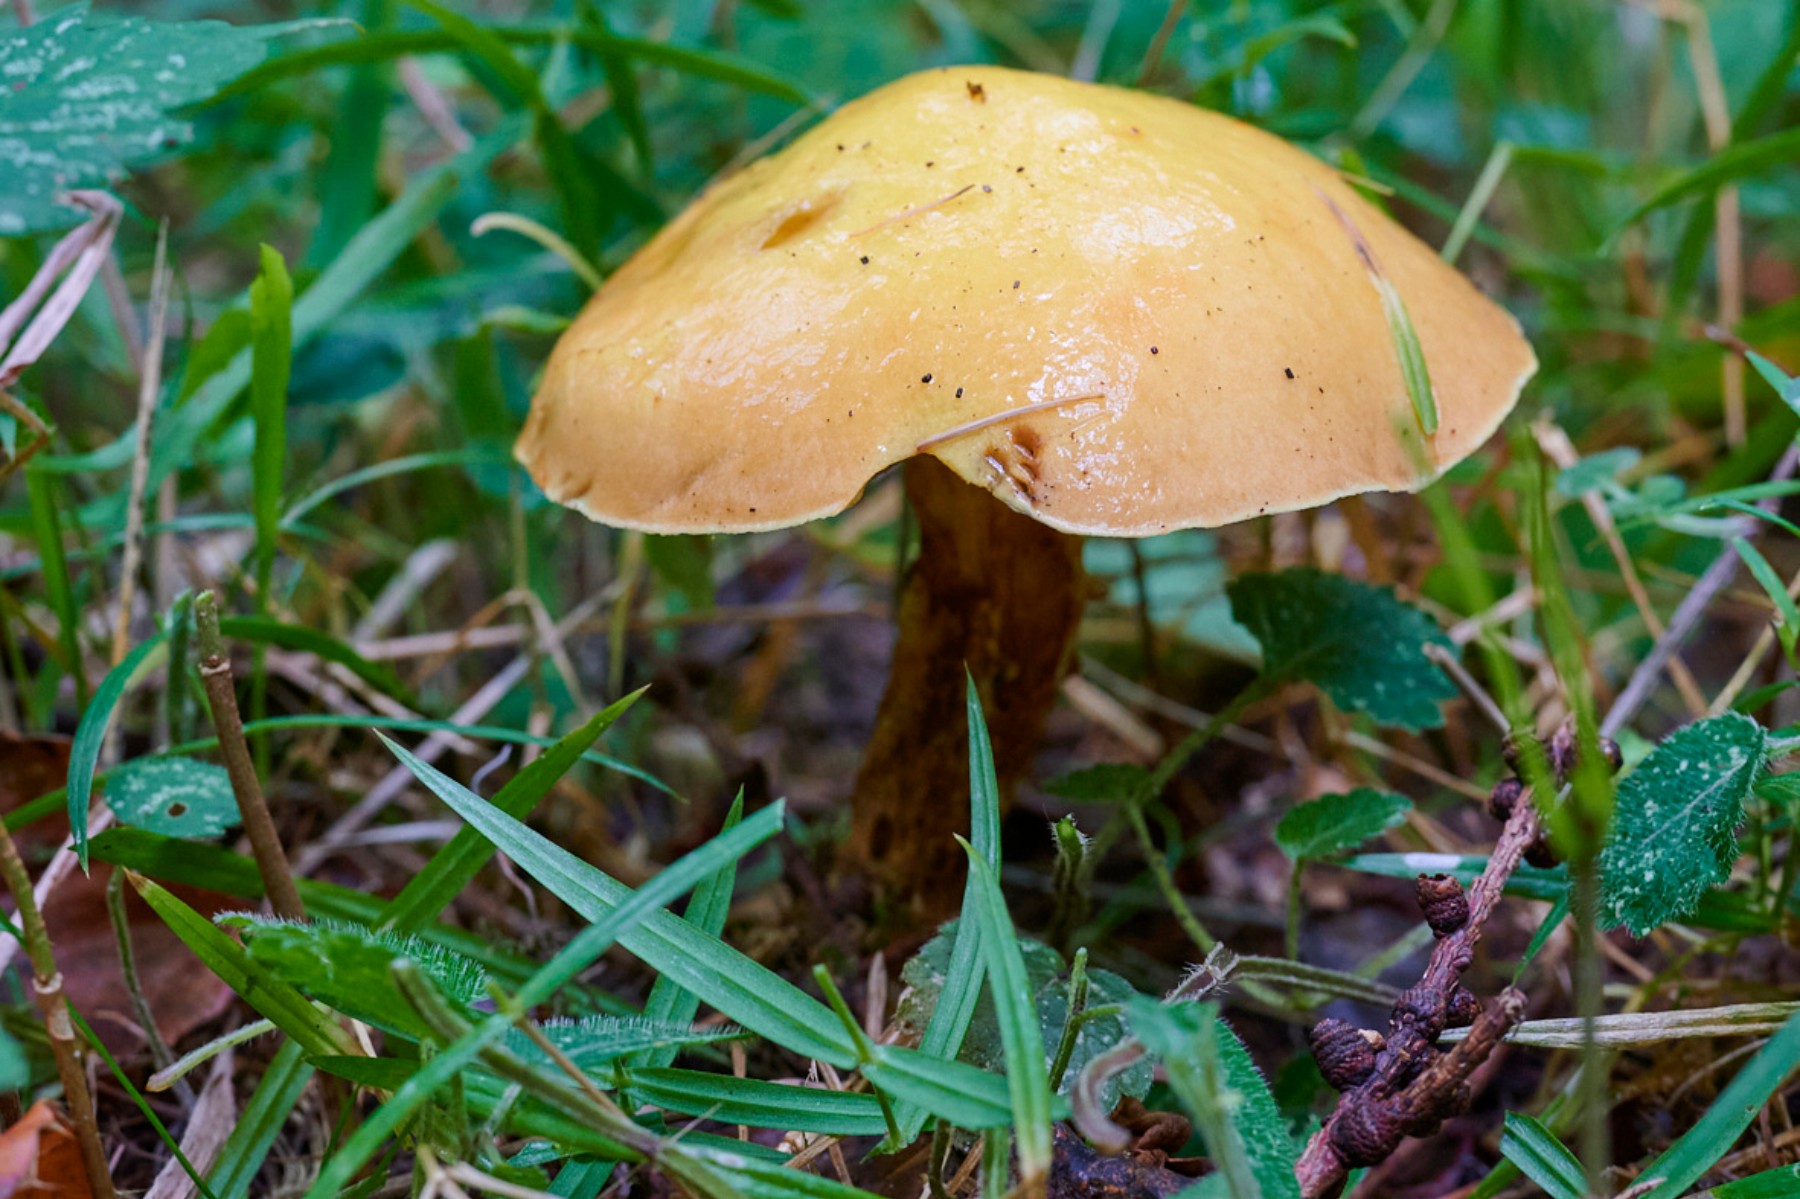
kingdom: Fungi
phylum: Basidiomycota
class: Agaricomycetes
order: Boletales
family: Suillaceae
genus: Suillus
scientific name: Suillus grevillei
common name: lærke-slimrørhat
